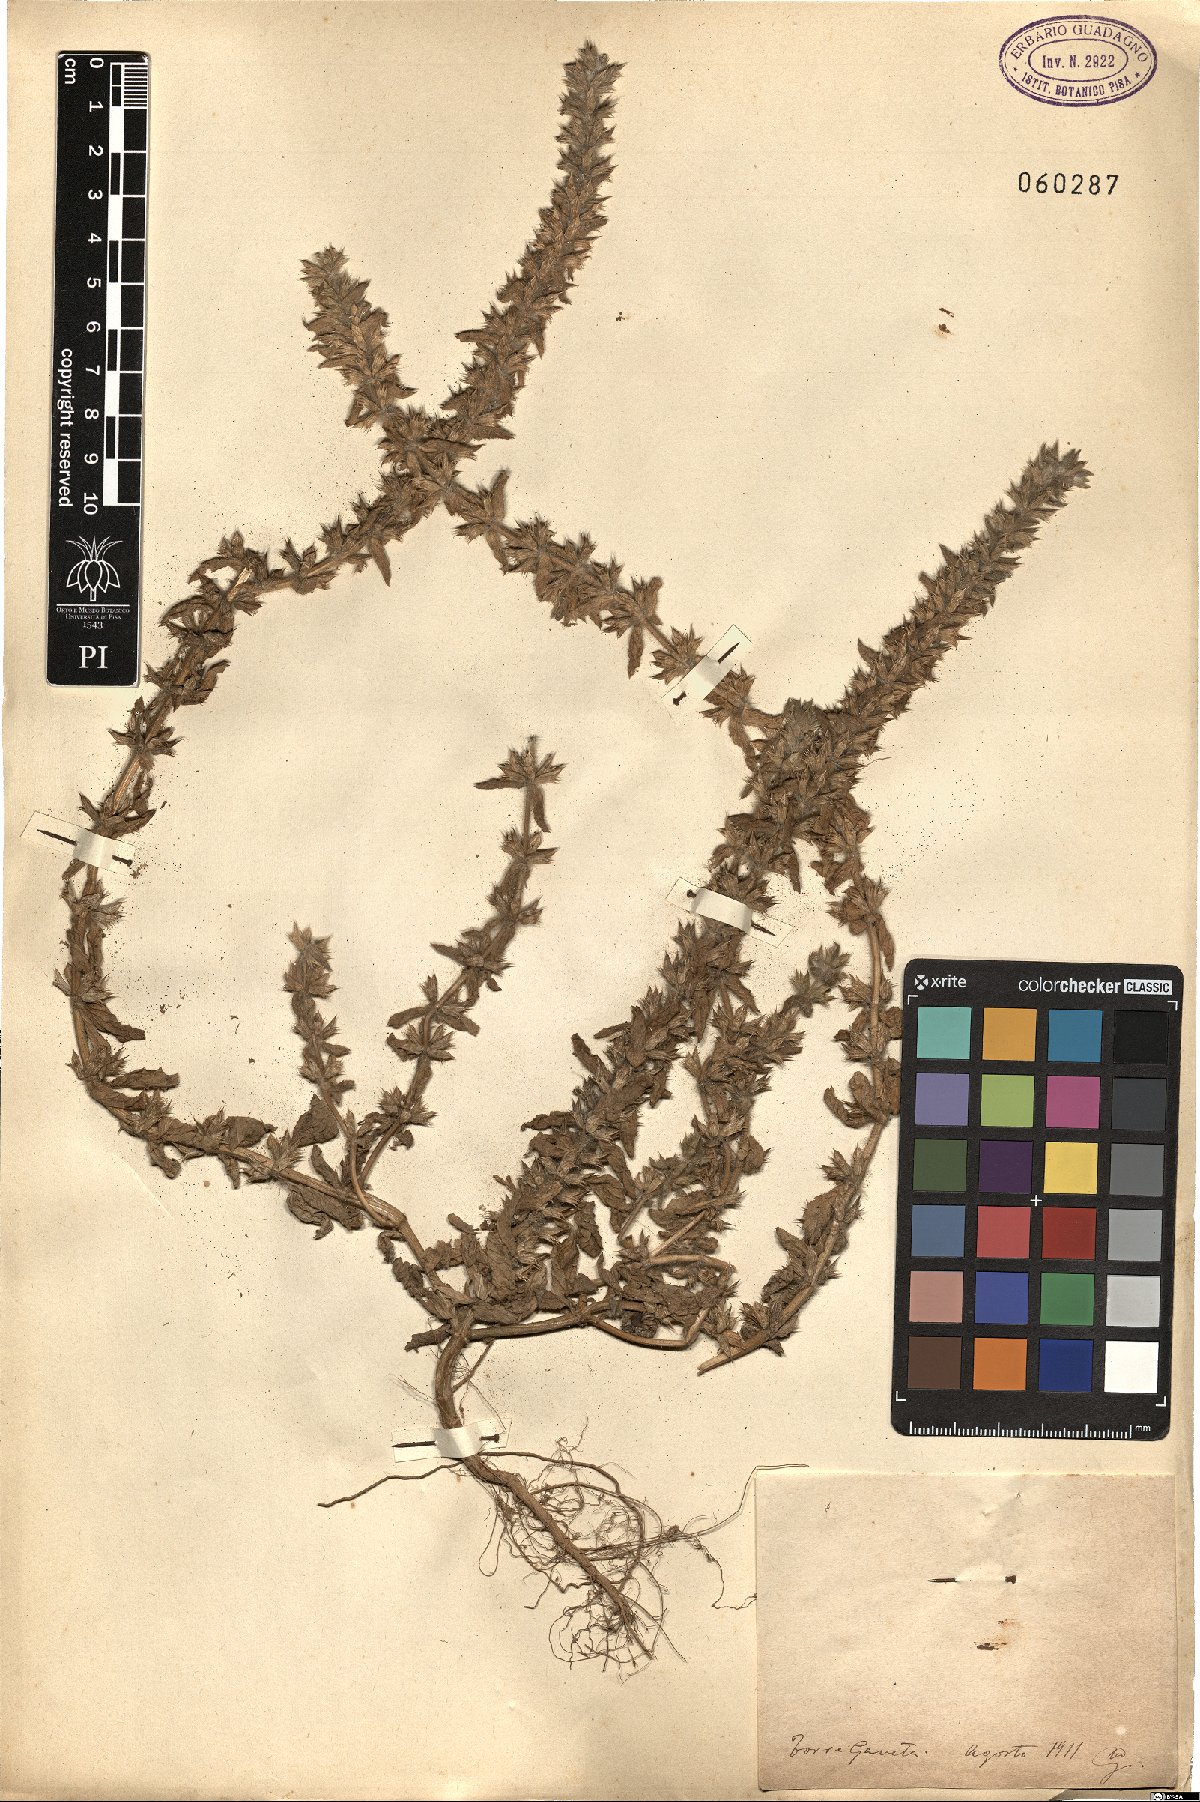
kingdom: Plantae
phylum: Tracheophyta
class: Magnoliopsida
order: Lamiales
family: Lamiaceae
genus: Sideritis
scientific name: Sideritis romana
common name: Simplebeak ironwort
